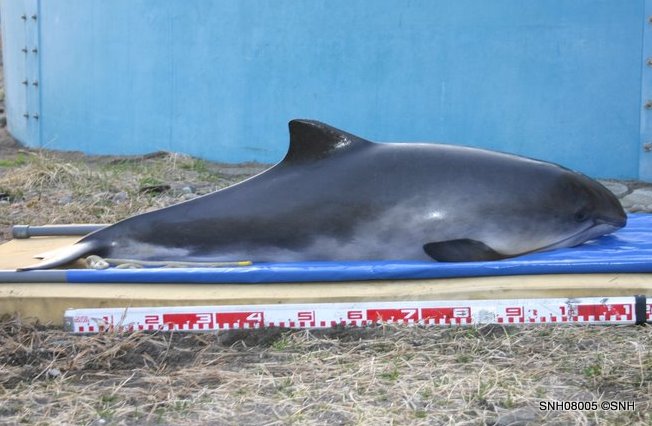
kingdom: Animalia
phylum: Chordata
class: Mammalia
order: Cetacea
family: Phocoenidae
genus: Phocoena
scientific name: Phocoena phocoena
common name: Harbour porpoise
